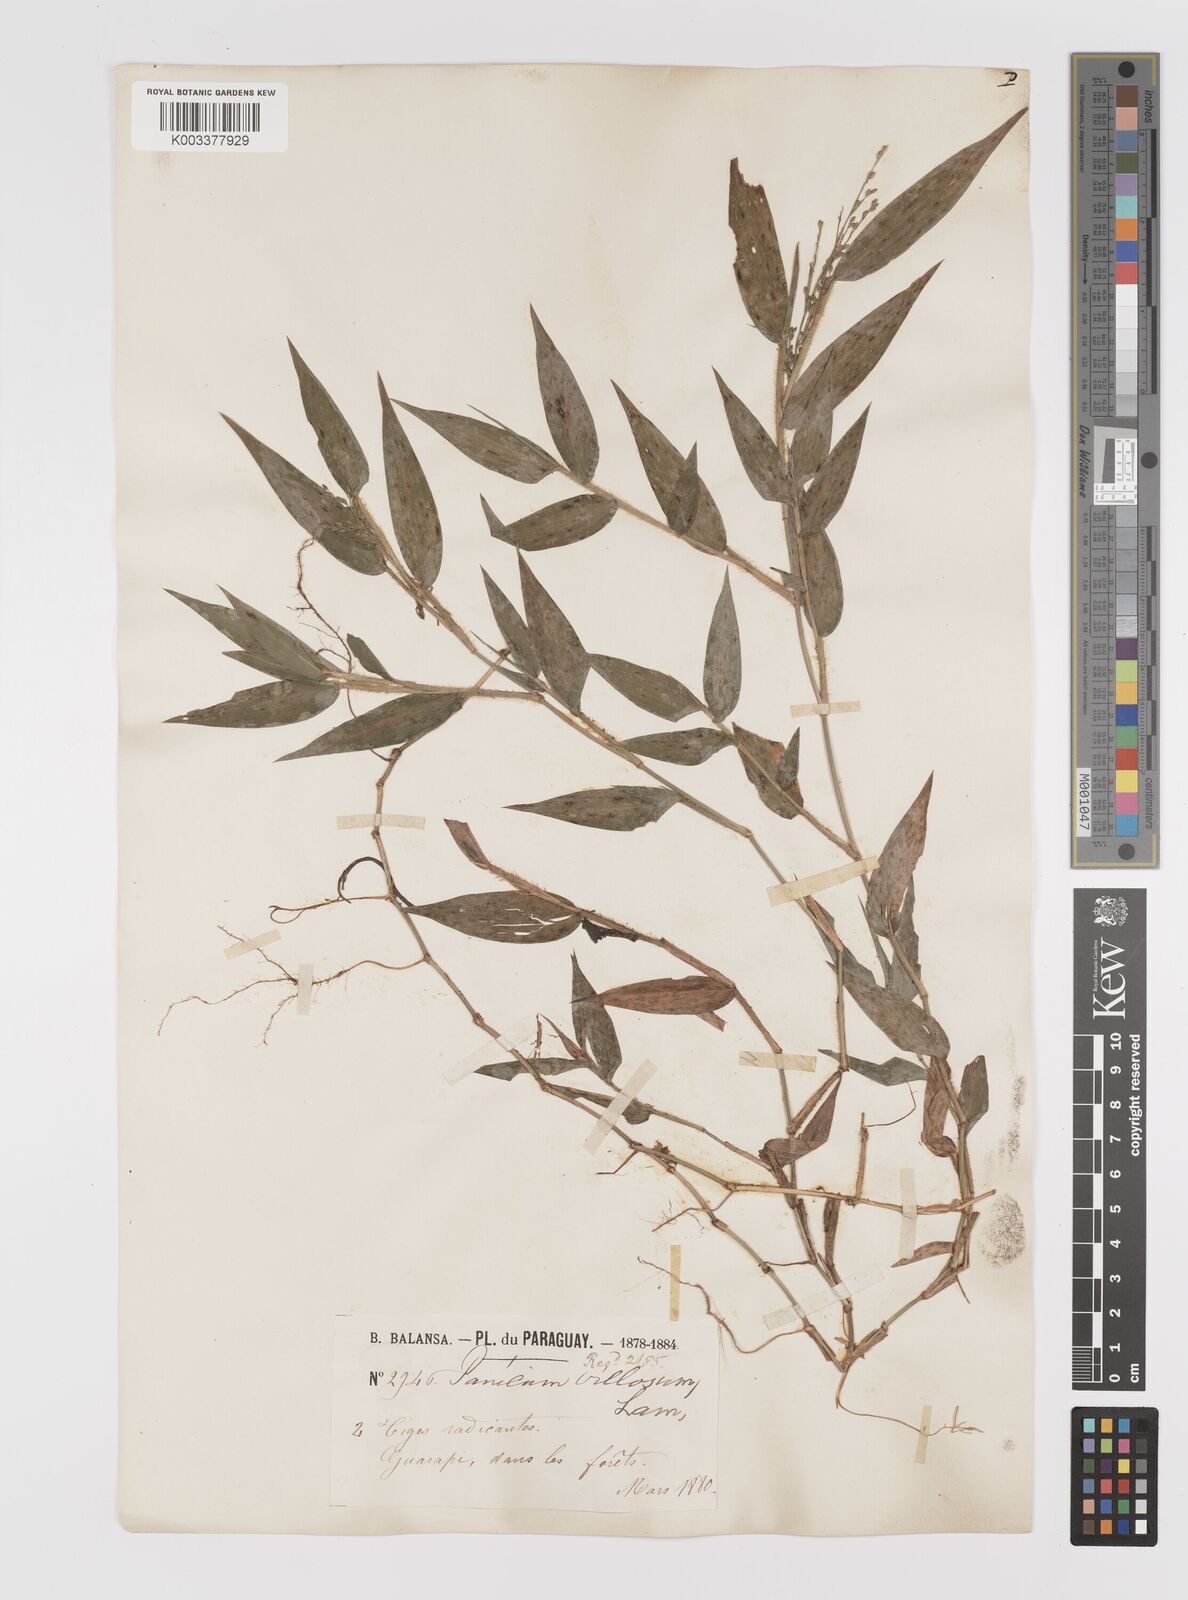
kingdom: Plantae
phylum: Tracheophyta
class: Liliopsida
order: Poales
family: Poaceae
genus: Parodiophyllochloa
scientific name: Parodiophyllochloa ovulifera
